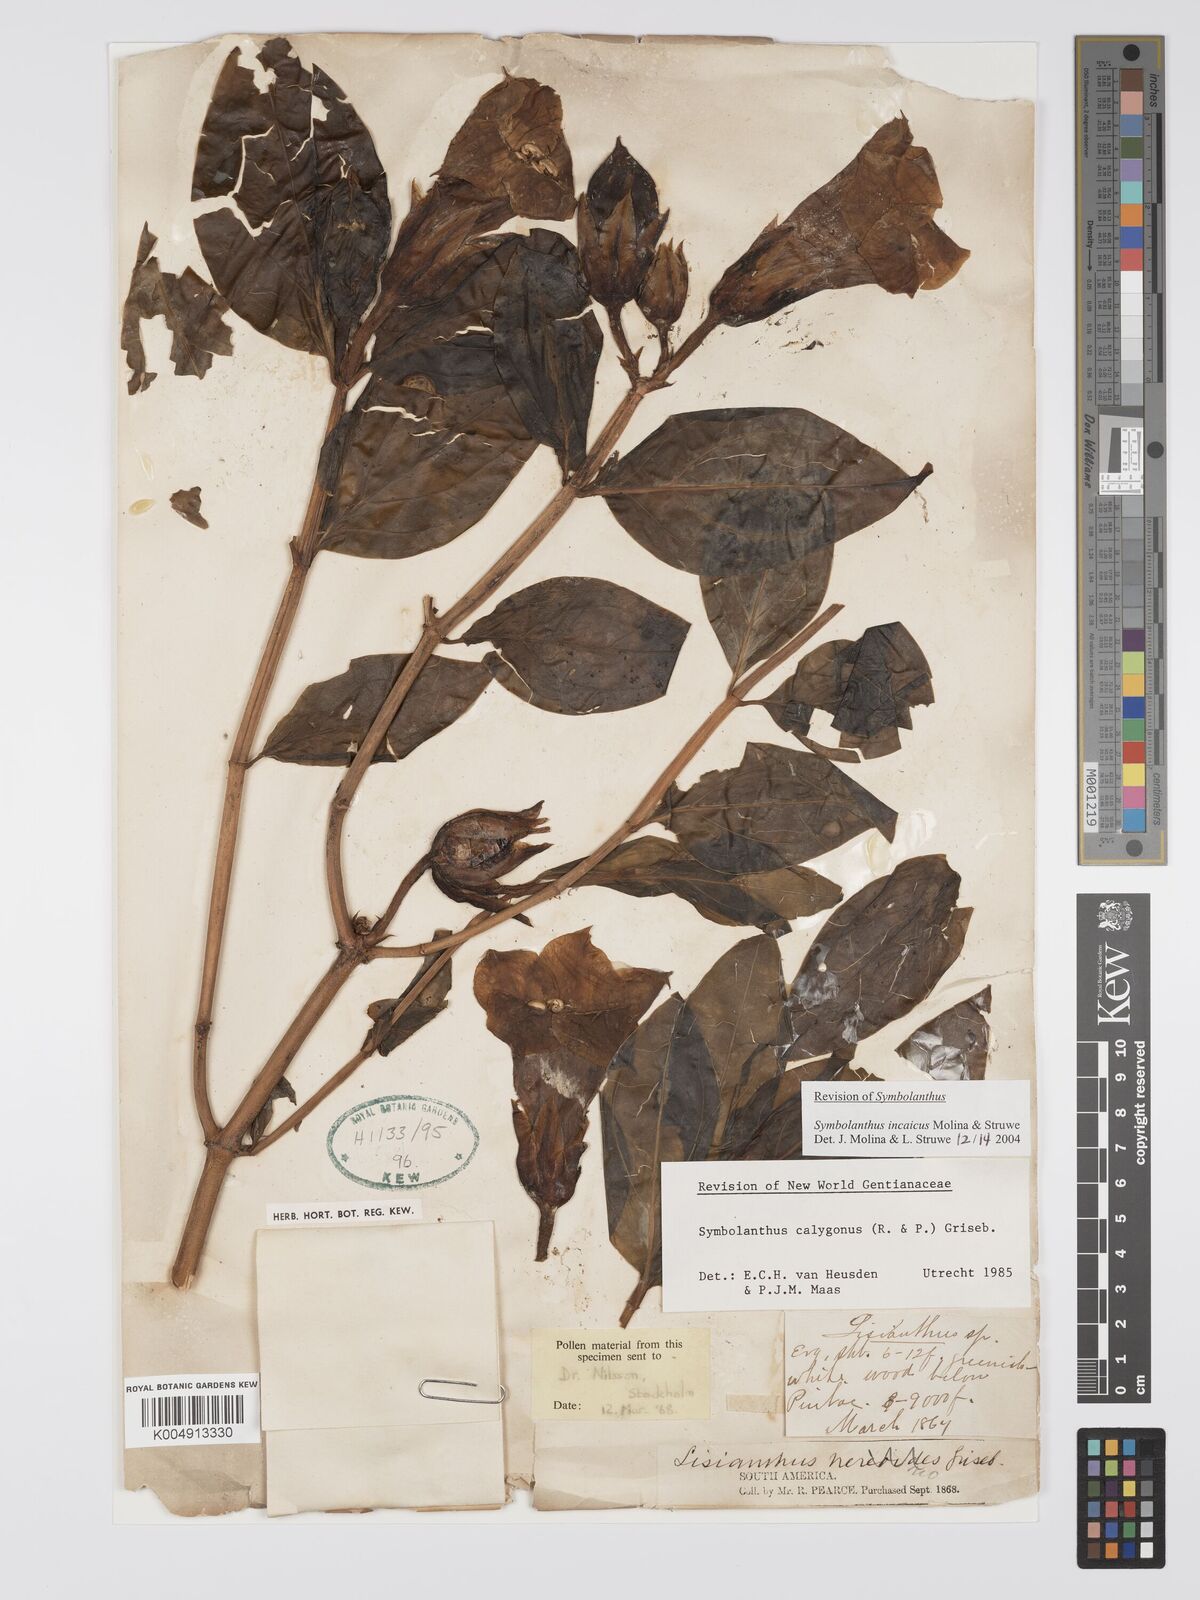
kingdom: Plantae
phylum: Tracheophyta
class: Magnoliopsida
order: Gentianales
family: Gentianaceae
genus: Symbolanthus
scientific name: Symbolanthus incaicus
